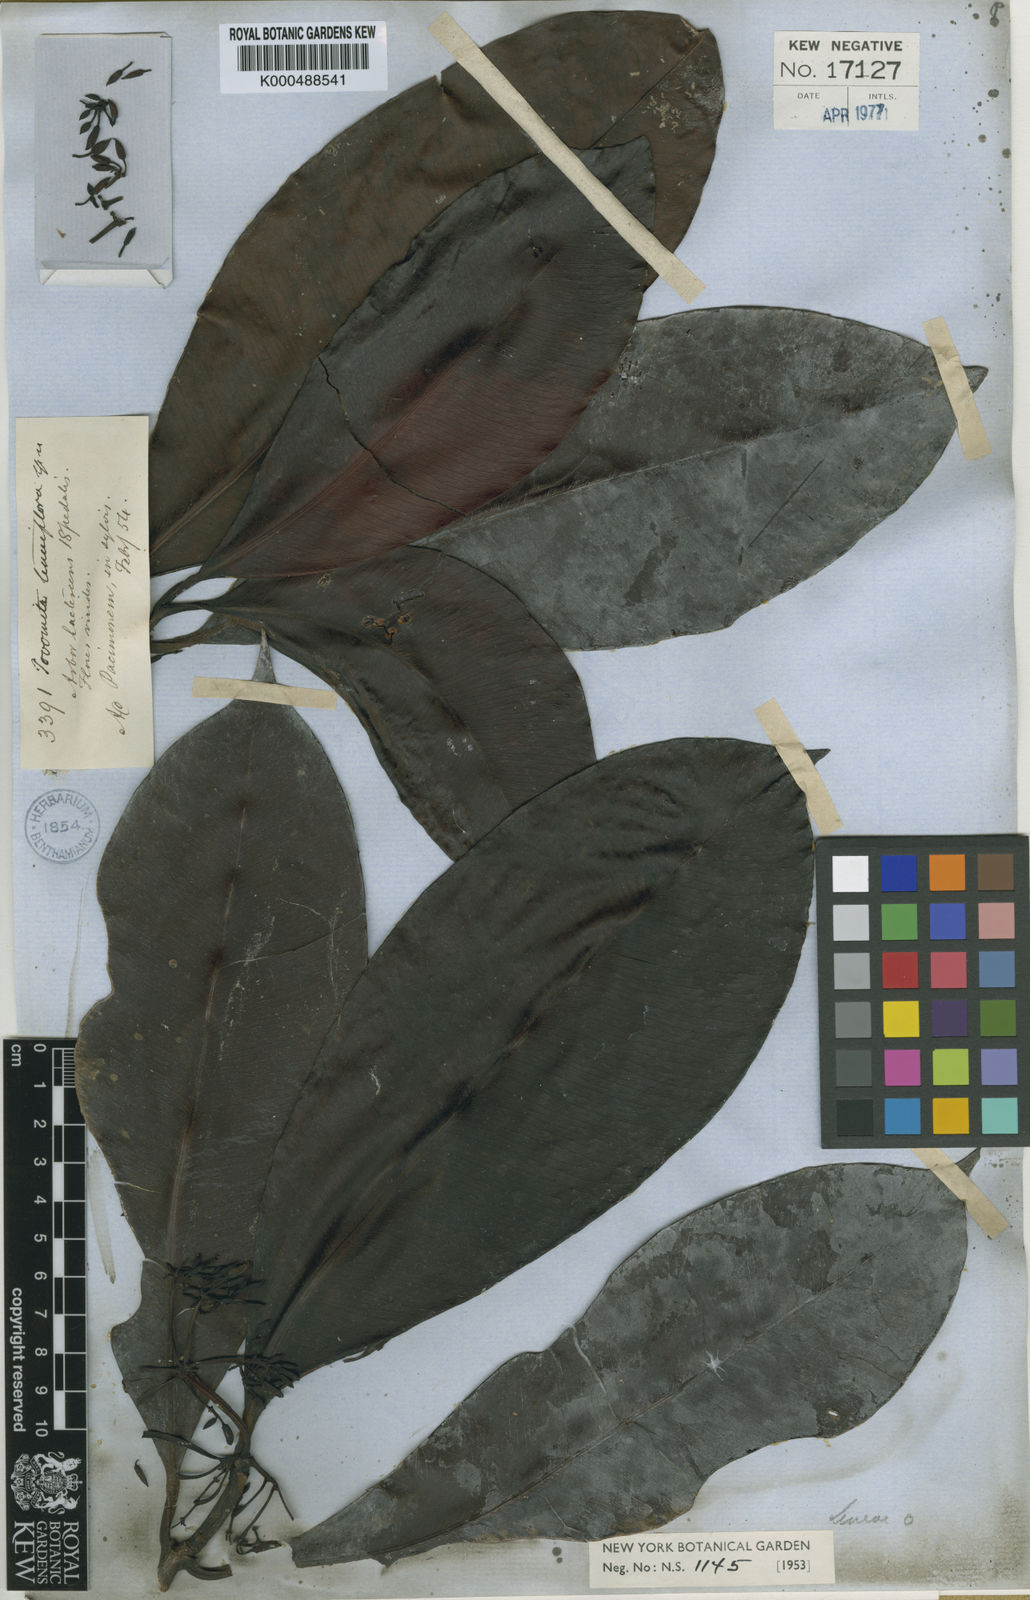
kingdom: Plantae
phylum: Tracheophyta
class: Magnoliopsida
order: Malpighiales
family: Clusiaceae
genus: Tovomita
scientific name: Tovomita tenuiflora
